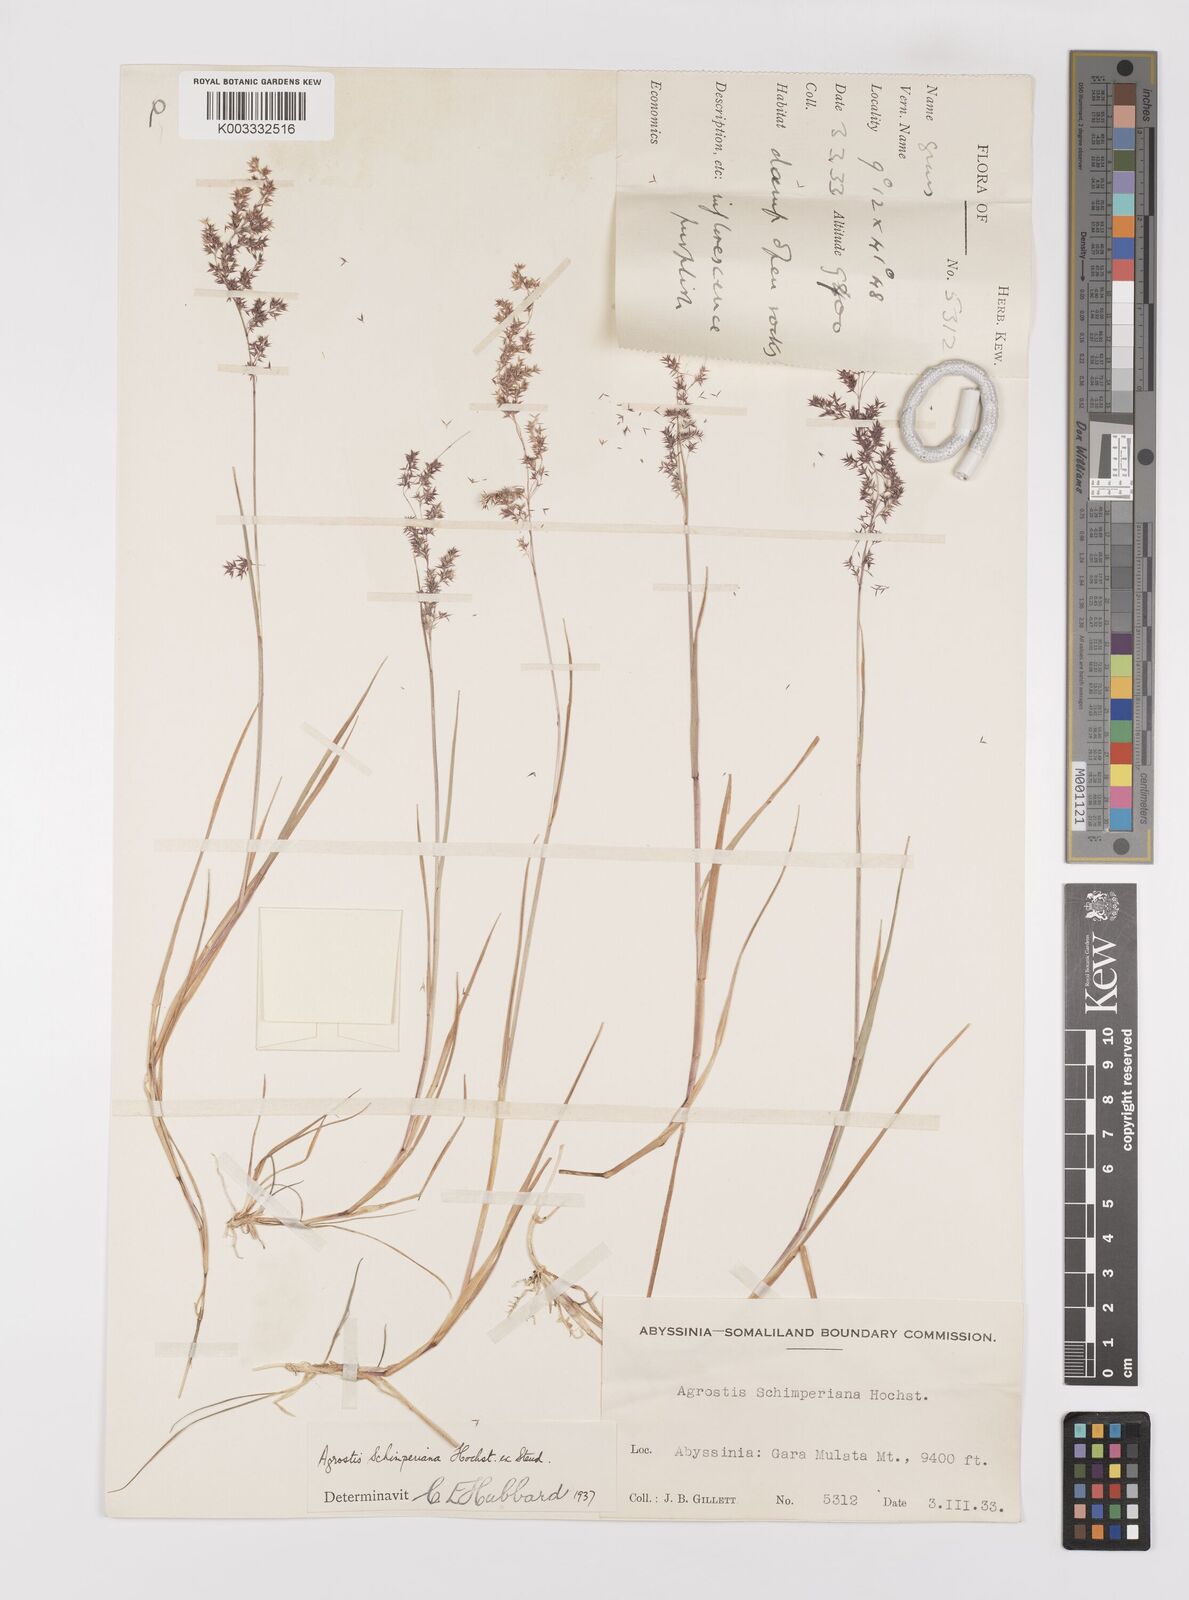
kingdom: Plantae
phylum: Tracheophyta
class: Liliopsida
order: Poales
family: Poaceae
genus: Polypogon
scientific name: Polypogon schimperianus
